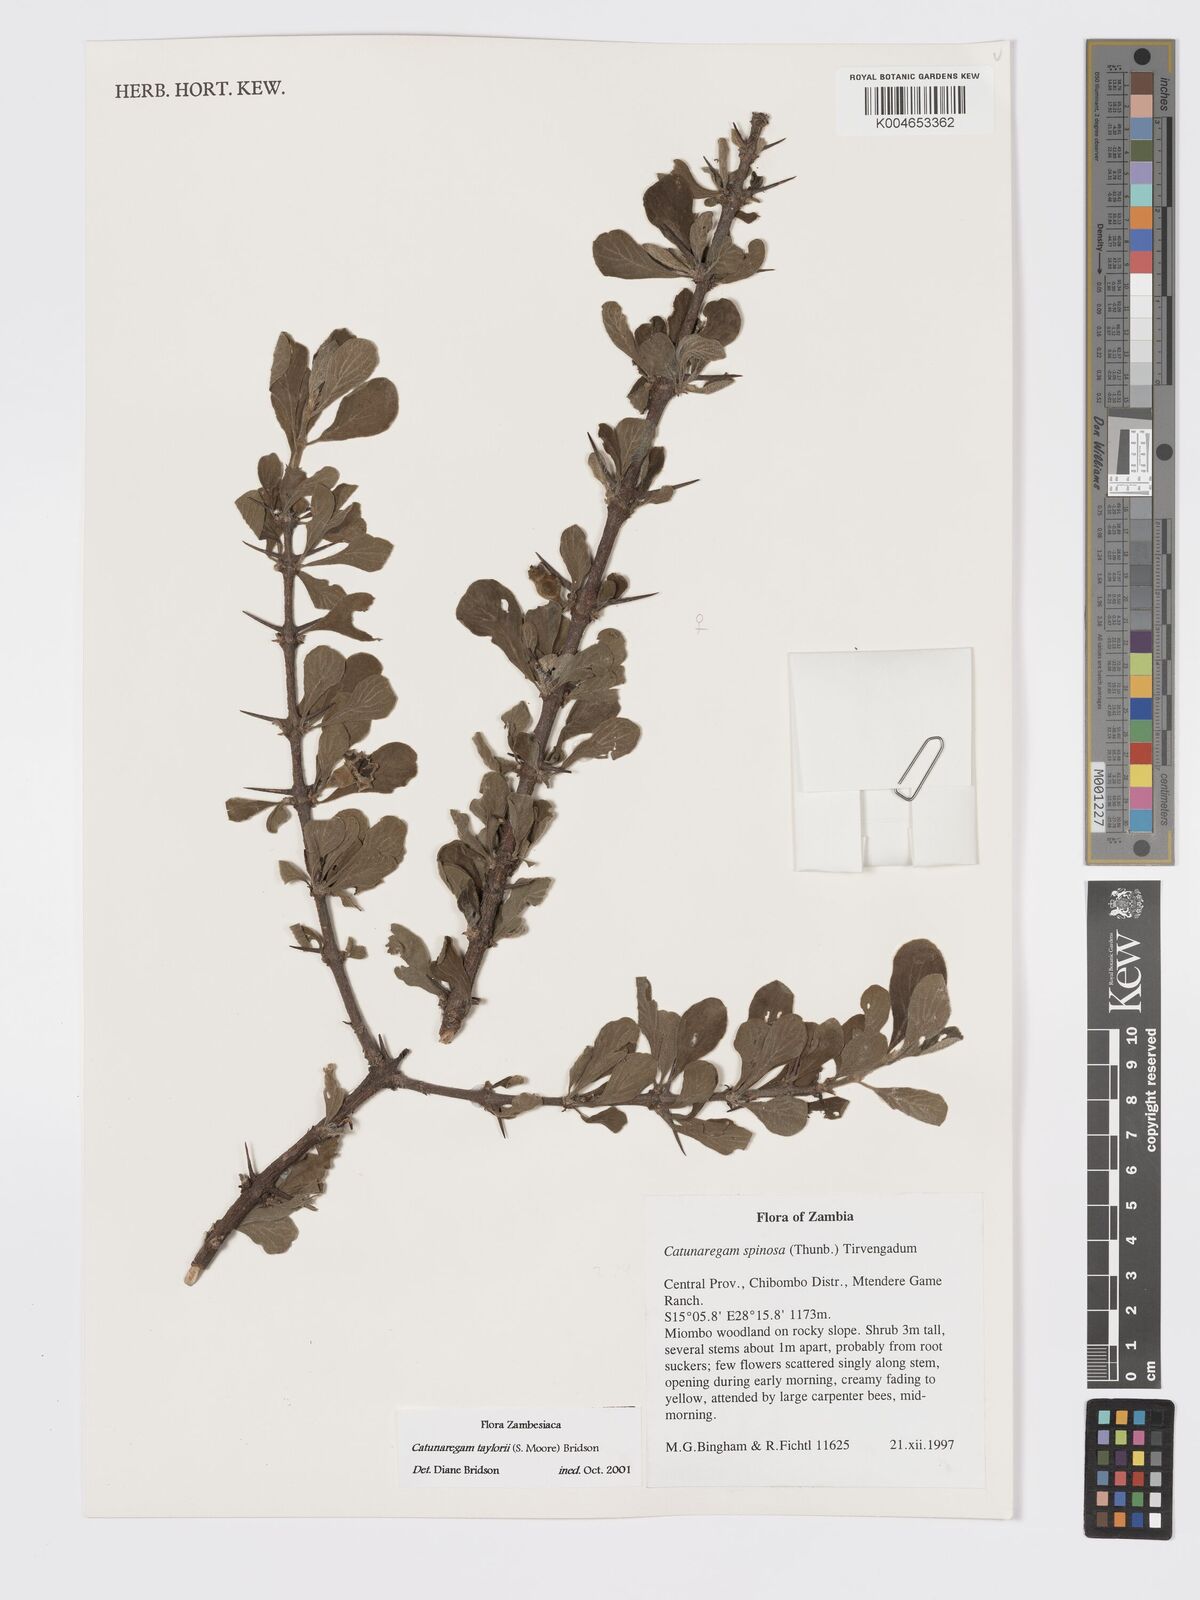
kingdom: Plantae
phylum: Tracheophyta
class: Magnoliopsida
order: Gentianales
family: Rubiaceae
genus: Catunaregam
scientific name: Catunaregam taylorii
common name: Miombo bone-apple
